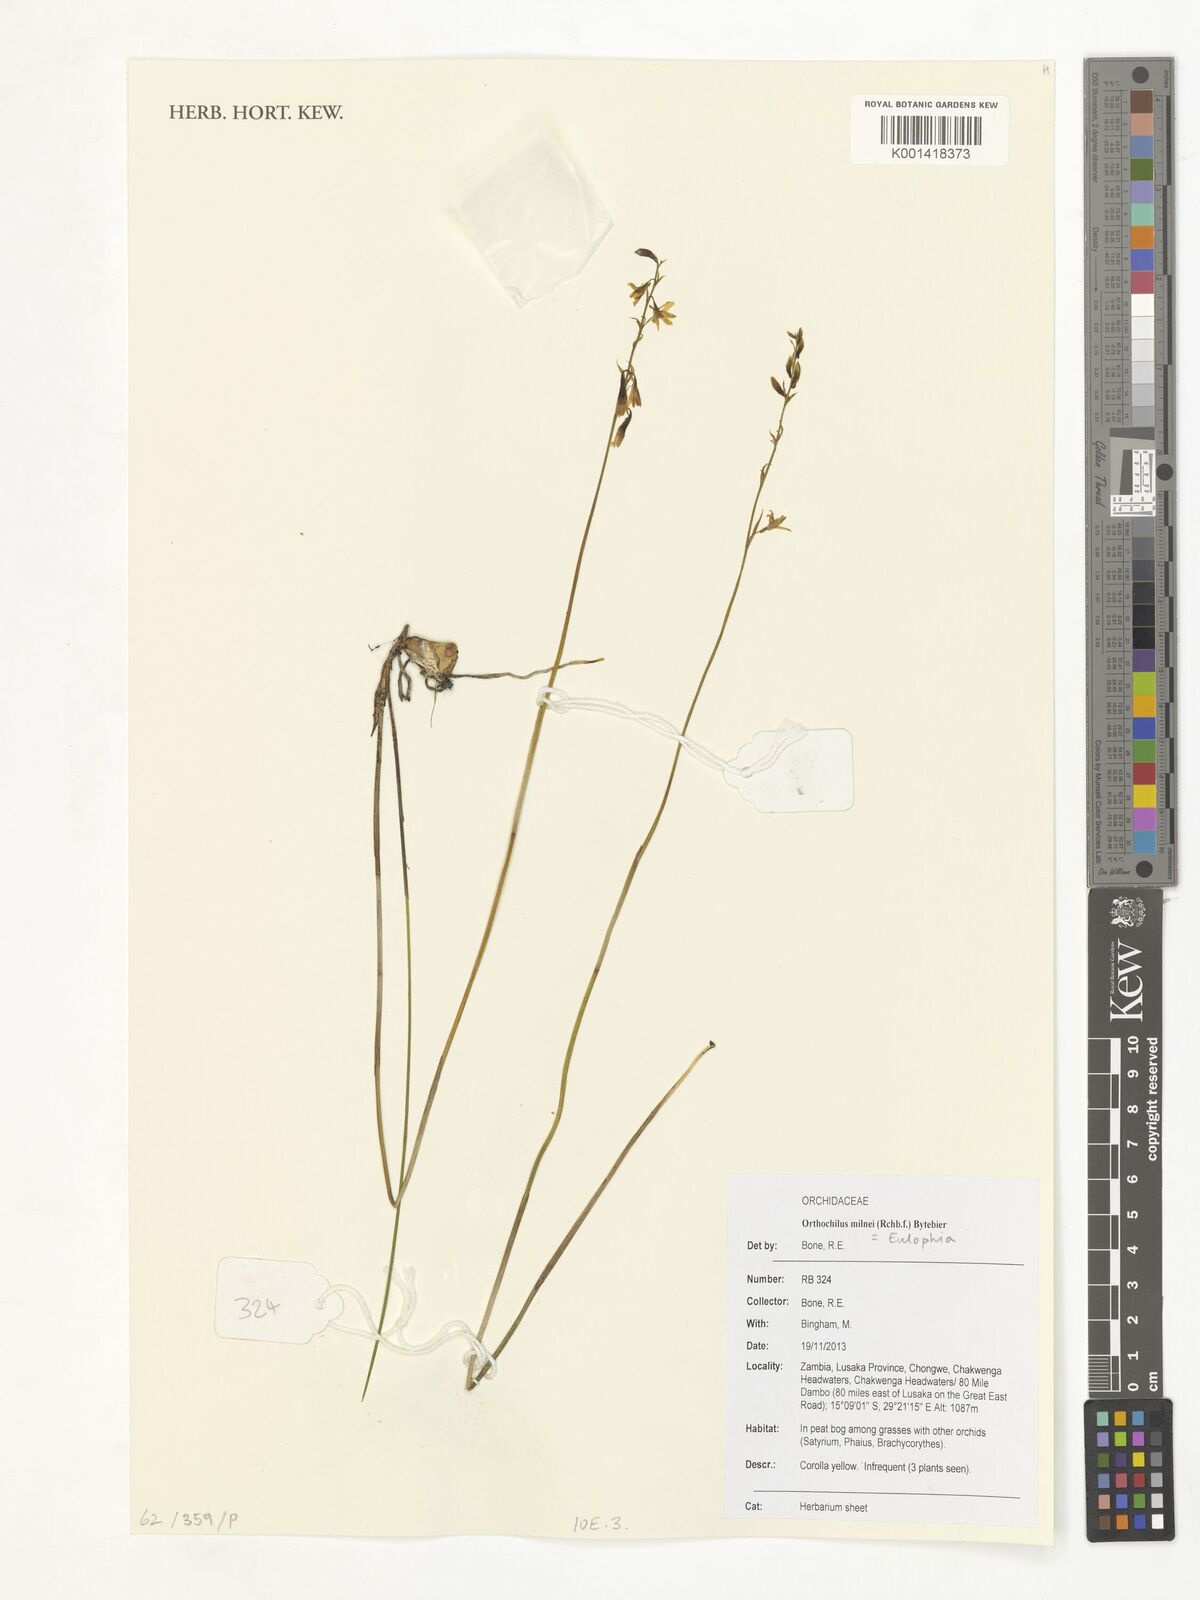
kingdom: Plantae
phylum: Tracheophyta
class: Liliopsida
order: Asparagales
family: Orchidaceae
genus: Eulophia
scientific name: Eulophia milnei
